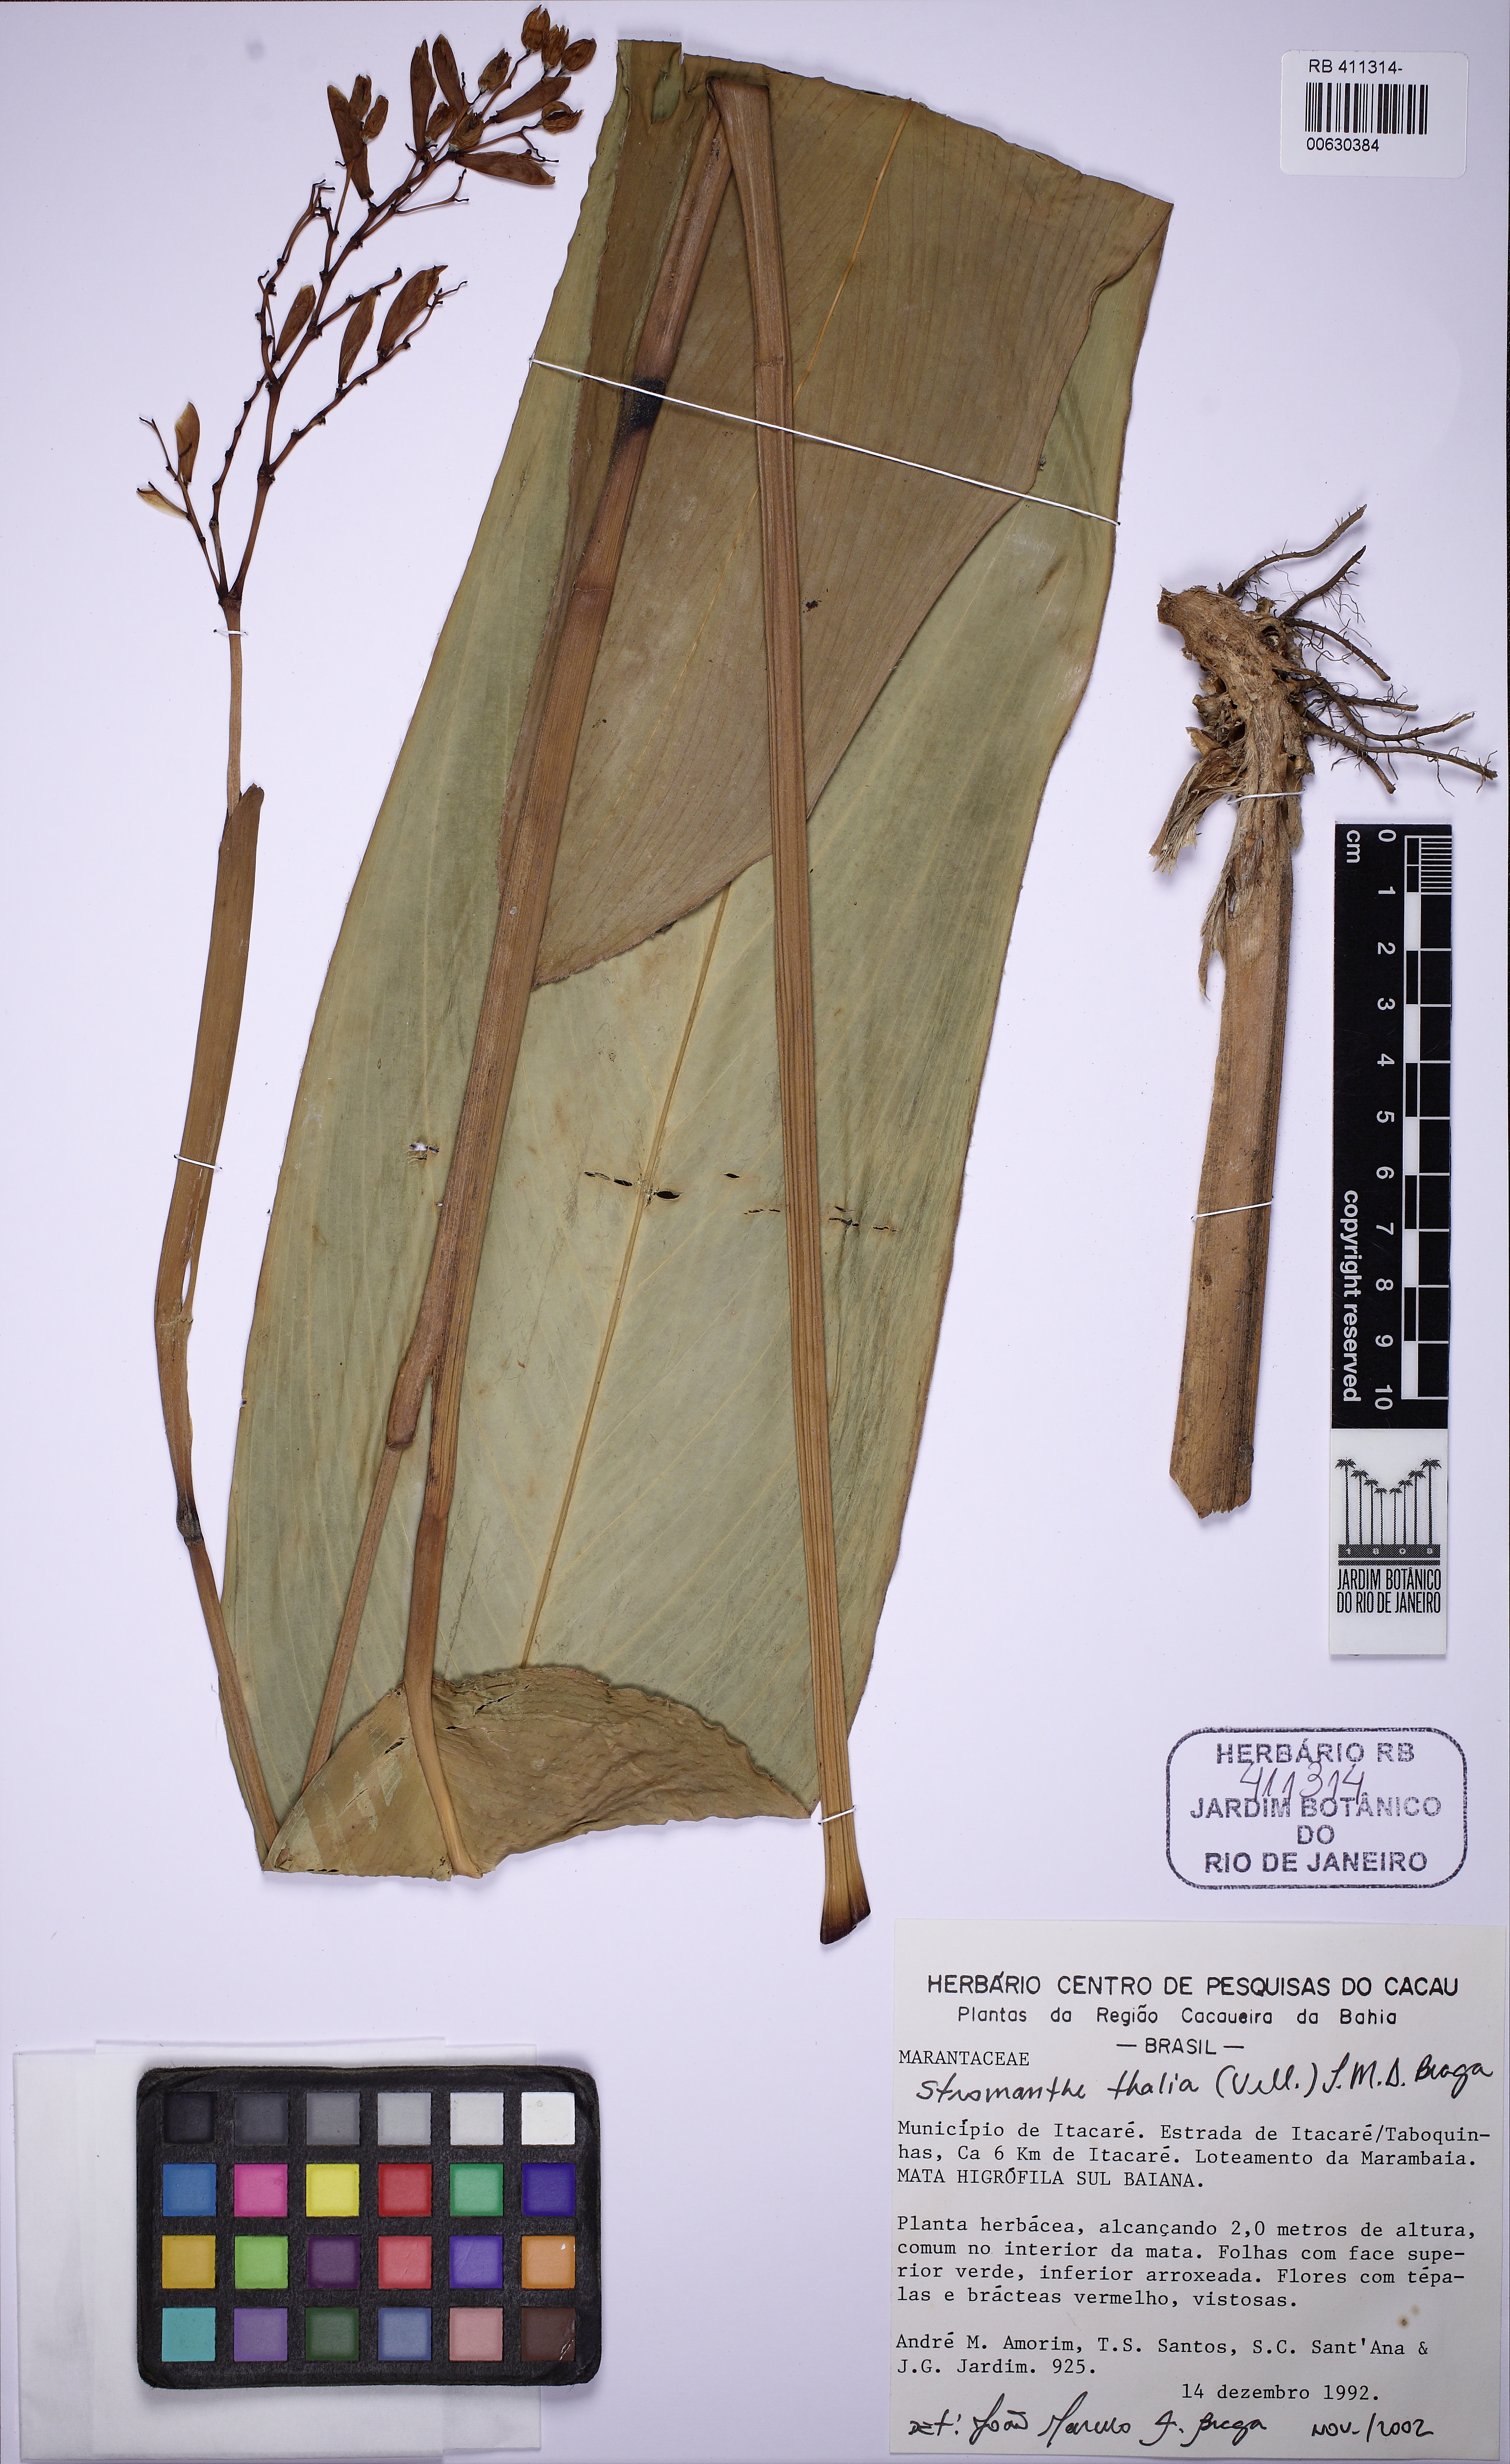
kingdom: Plantae
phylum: Tracheophyta
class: Liliopsida
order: Zingiberales
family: Marantaceae
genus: Stromanthe
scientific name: Stromanthe thalia
